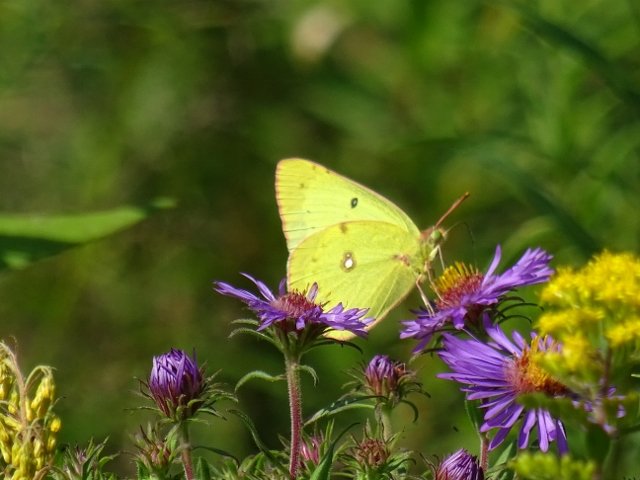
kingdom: Animalia
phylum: Arthropoda
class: Insecta
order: Lepidoptera
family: Pieridae
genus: Colias
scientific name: Colias philodice
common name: Clouded Sulphur
